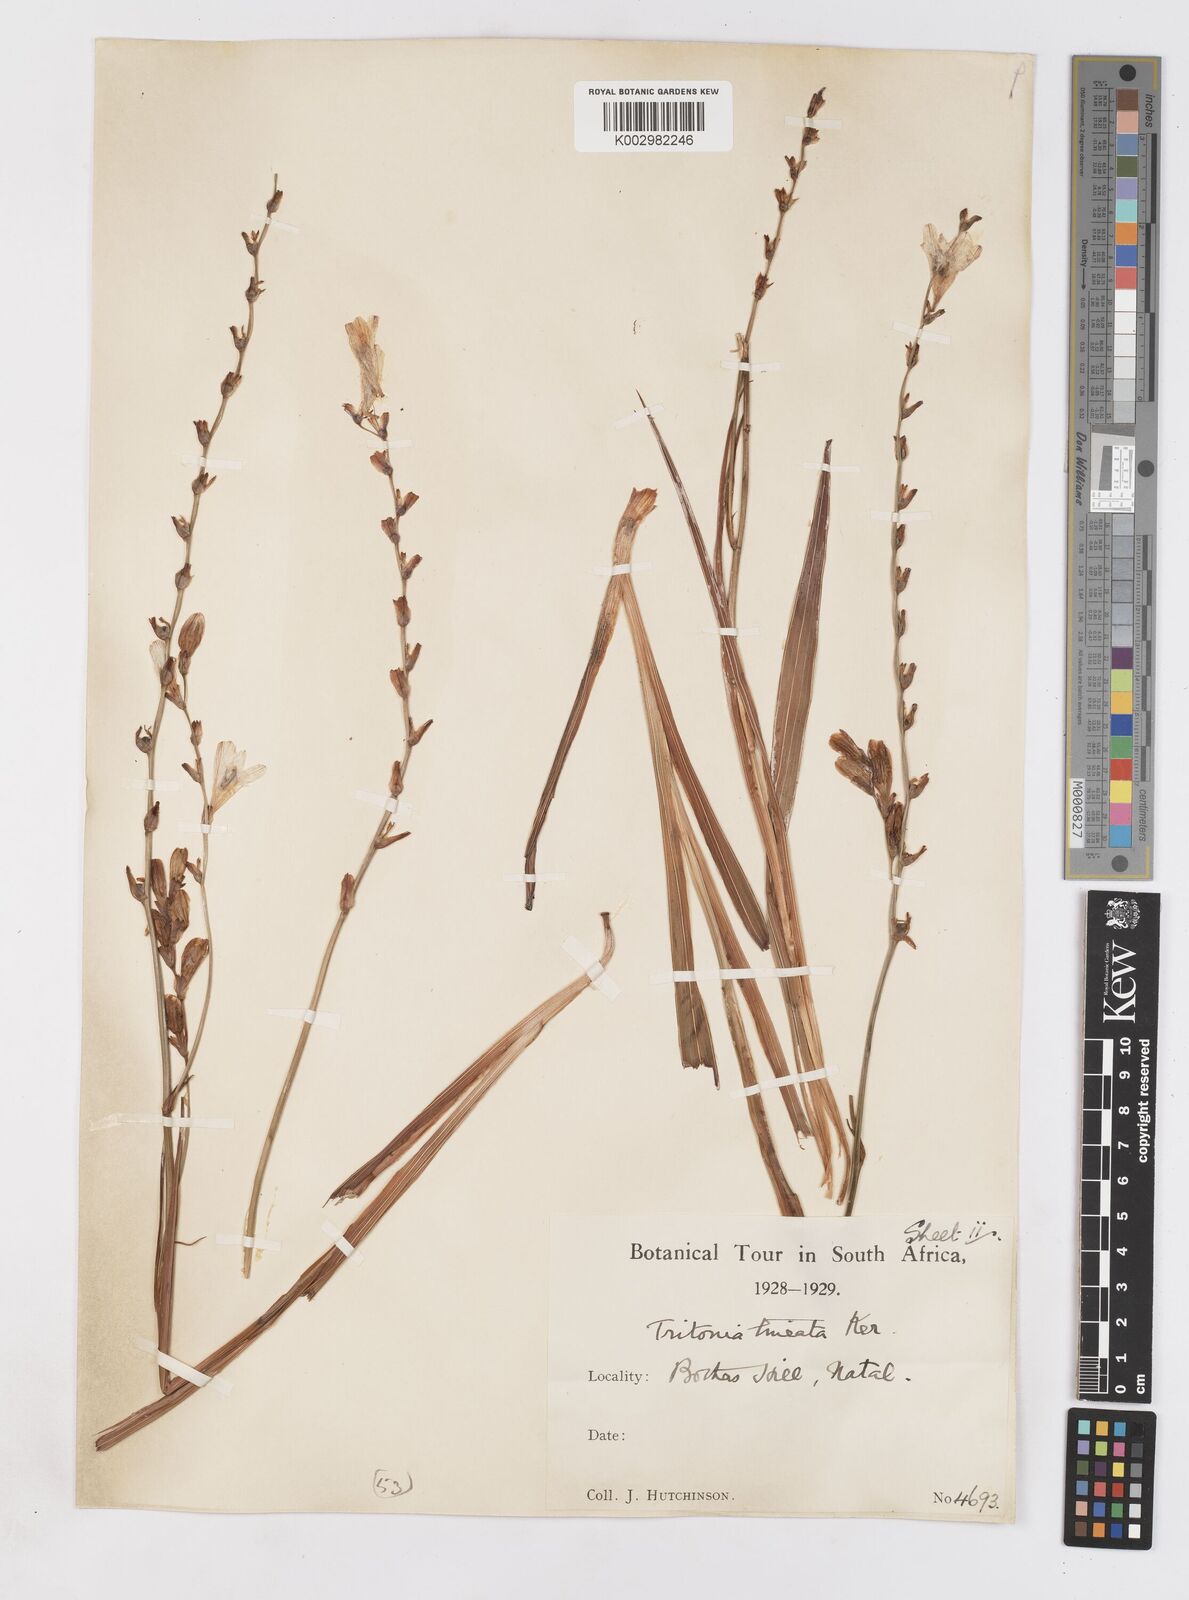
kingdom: Plantae
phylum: Tracheophyta
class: Liliopsida
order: Asparagales
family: Iridaceae
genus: Tritonia
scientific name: Tritonia gladiolaris
